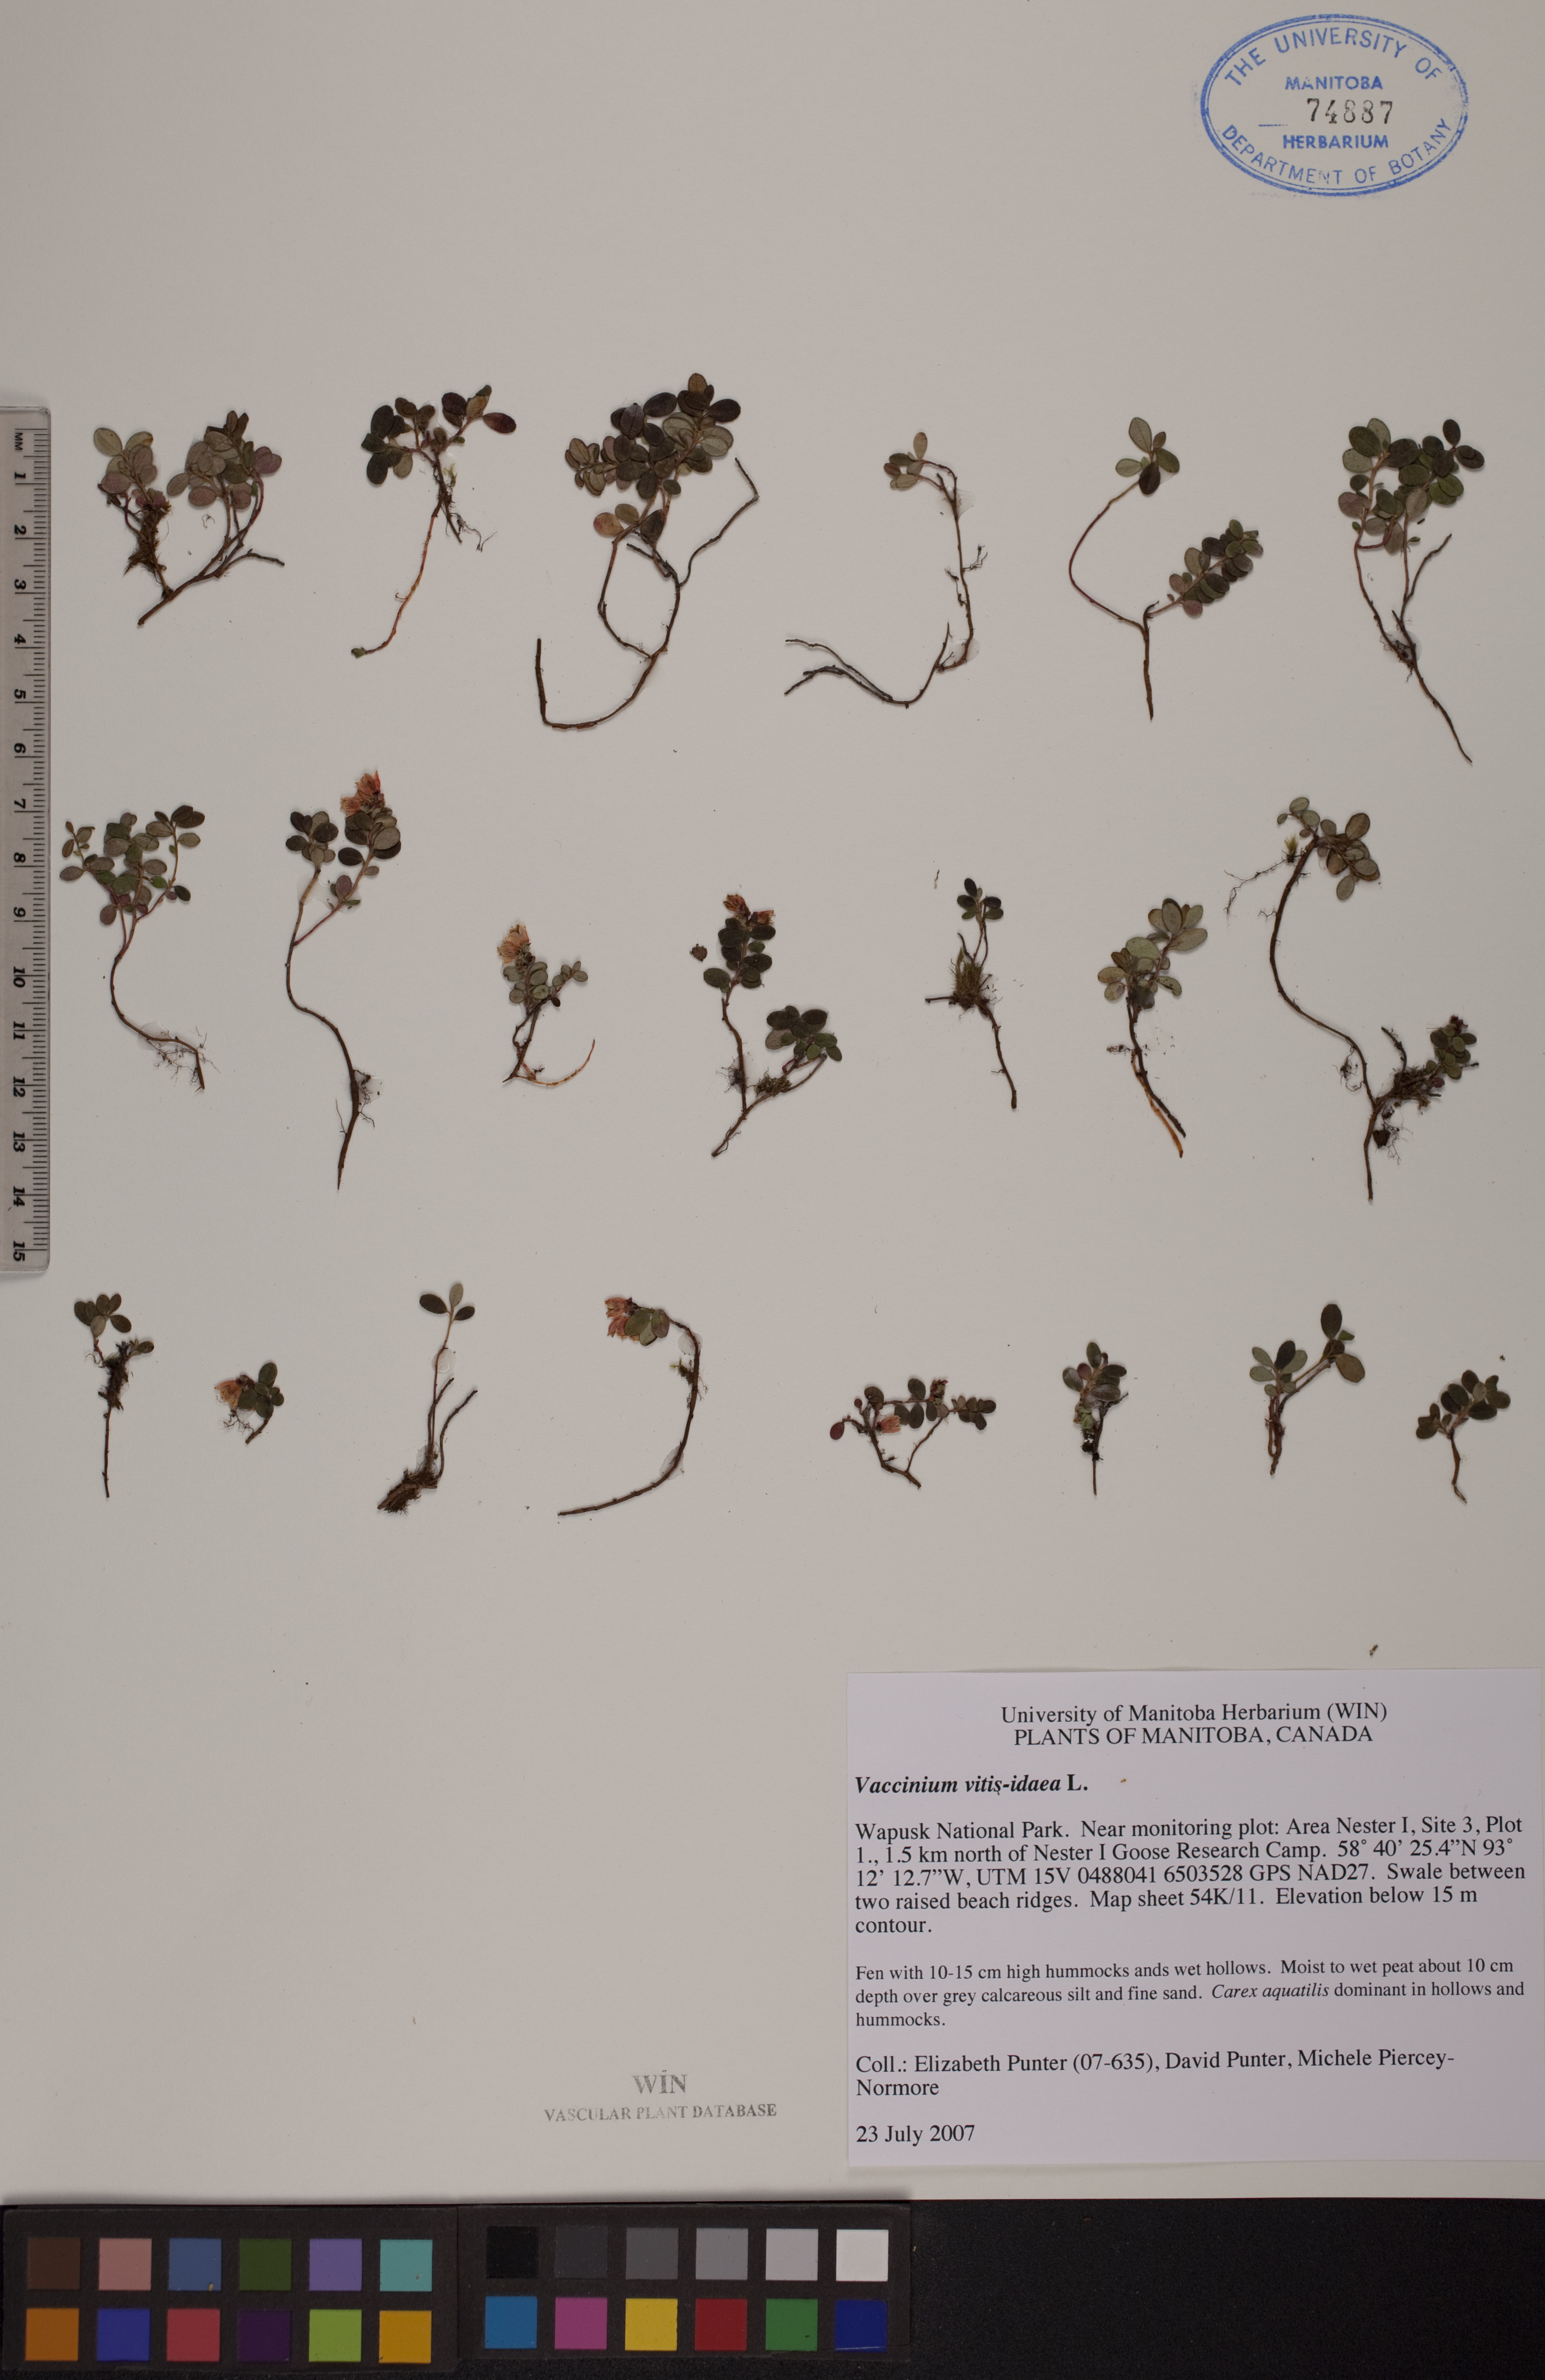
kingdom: Plantae
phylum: Tracheophyta
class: Magnoliopsida
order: Ericales
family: Ericaceae
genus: Vaccinium
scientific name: Vaccinium vitis-idaea
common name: Cowberry
